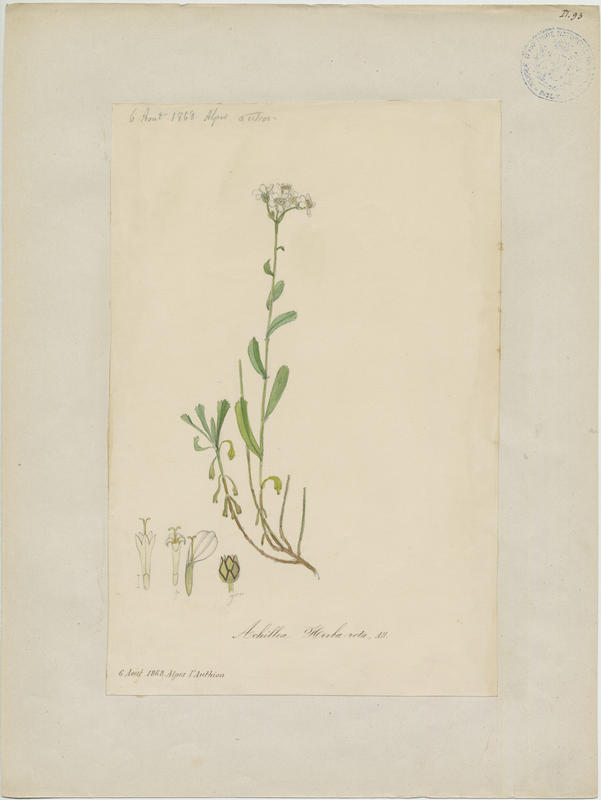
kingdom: Plantae
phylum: Tracheophyta
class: Magnoliopsida
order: Asterales
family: Asteraceae
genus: Achillea
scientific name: Achillea erba-rotta
